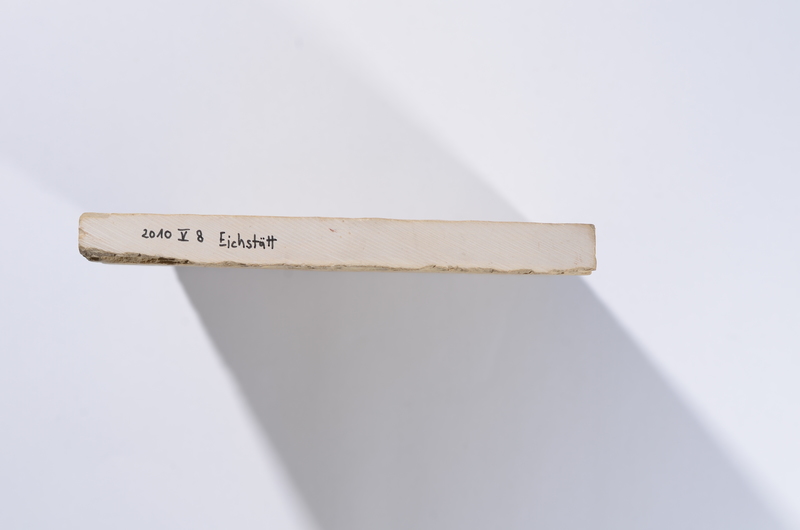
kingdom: Animalia
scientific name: Animalia
